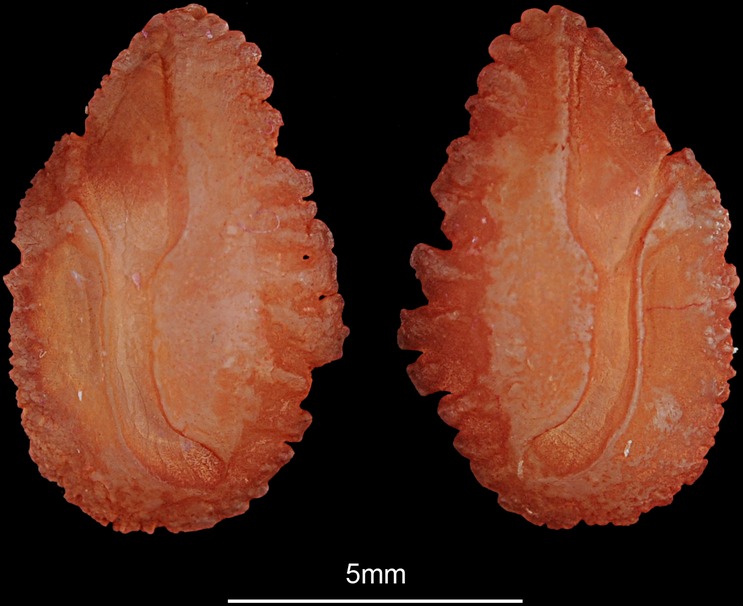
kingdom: Animalia
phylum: Chordata
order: Perciformes
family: Cichlidae
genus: Oreochromis
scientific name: Oreochromis niloticus
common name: Nile tilapia
